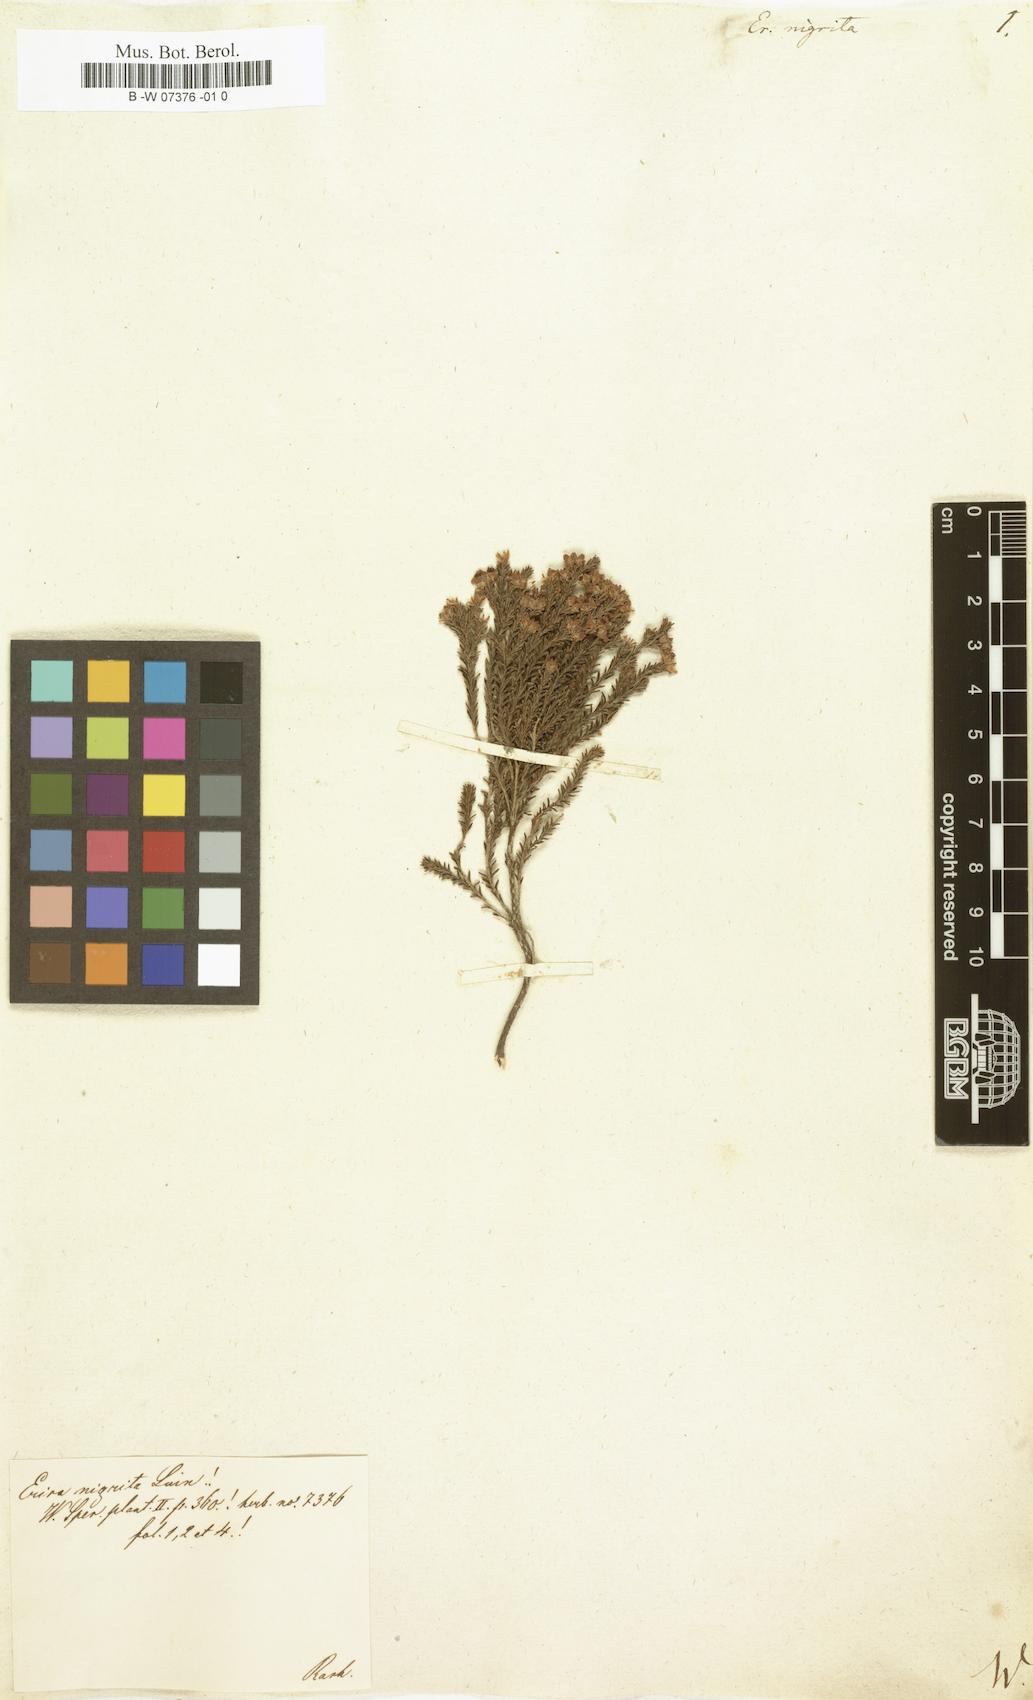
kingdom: Plantae
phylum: Tracheophyta
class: Magnoliopsida
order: Ericales
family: Ericaceae
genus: Erica
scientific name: Erica calycina
